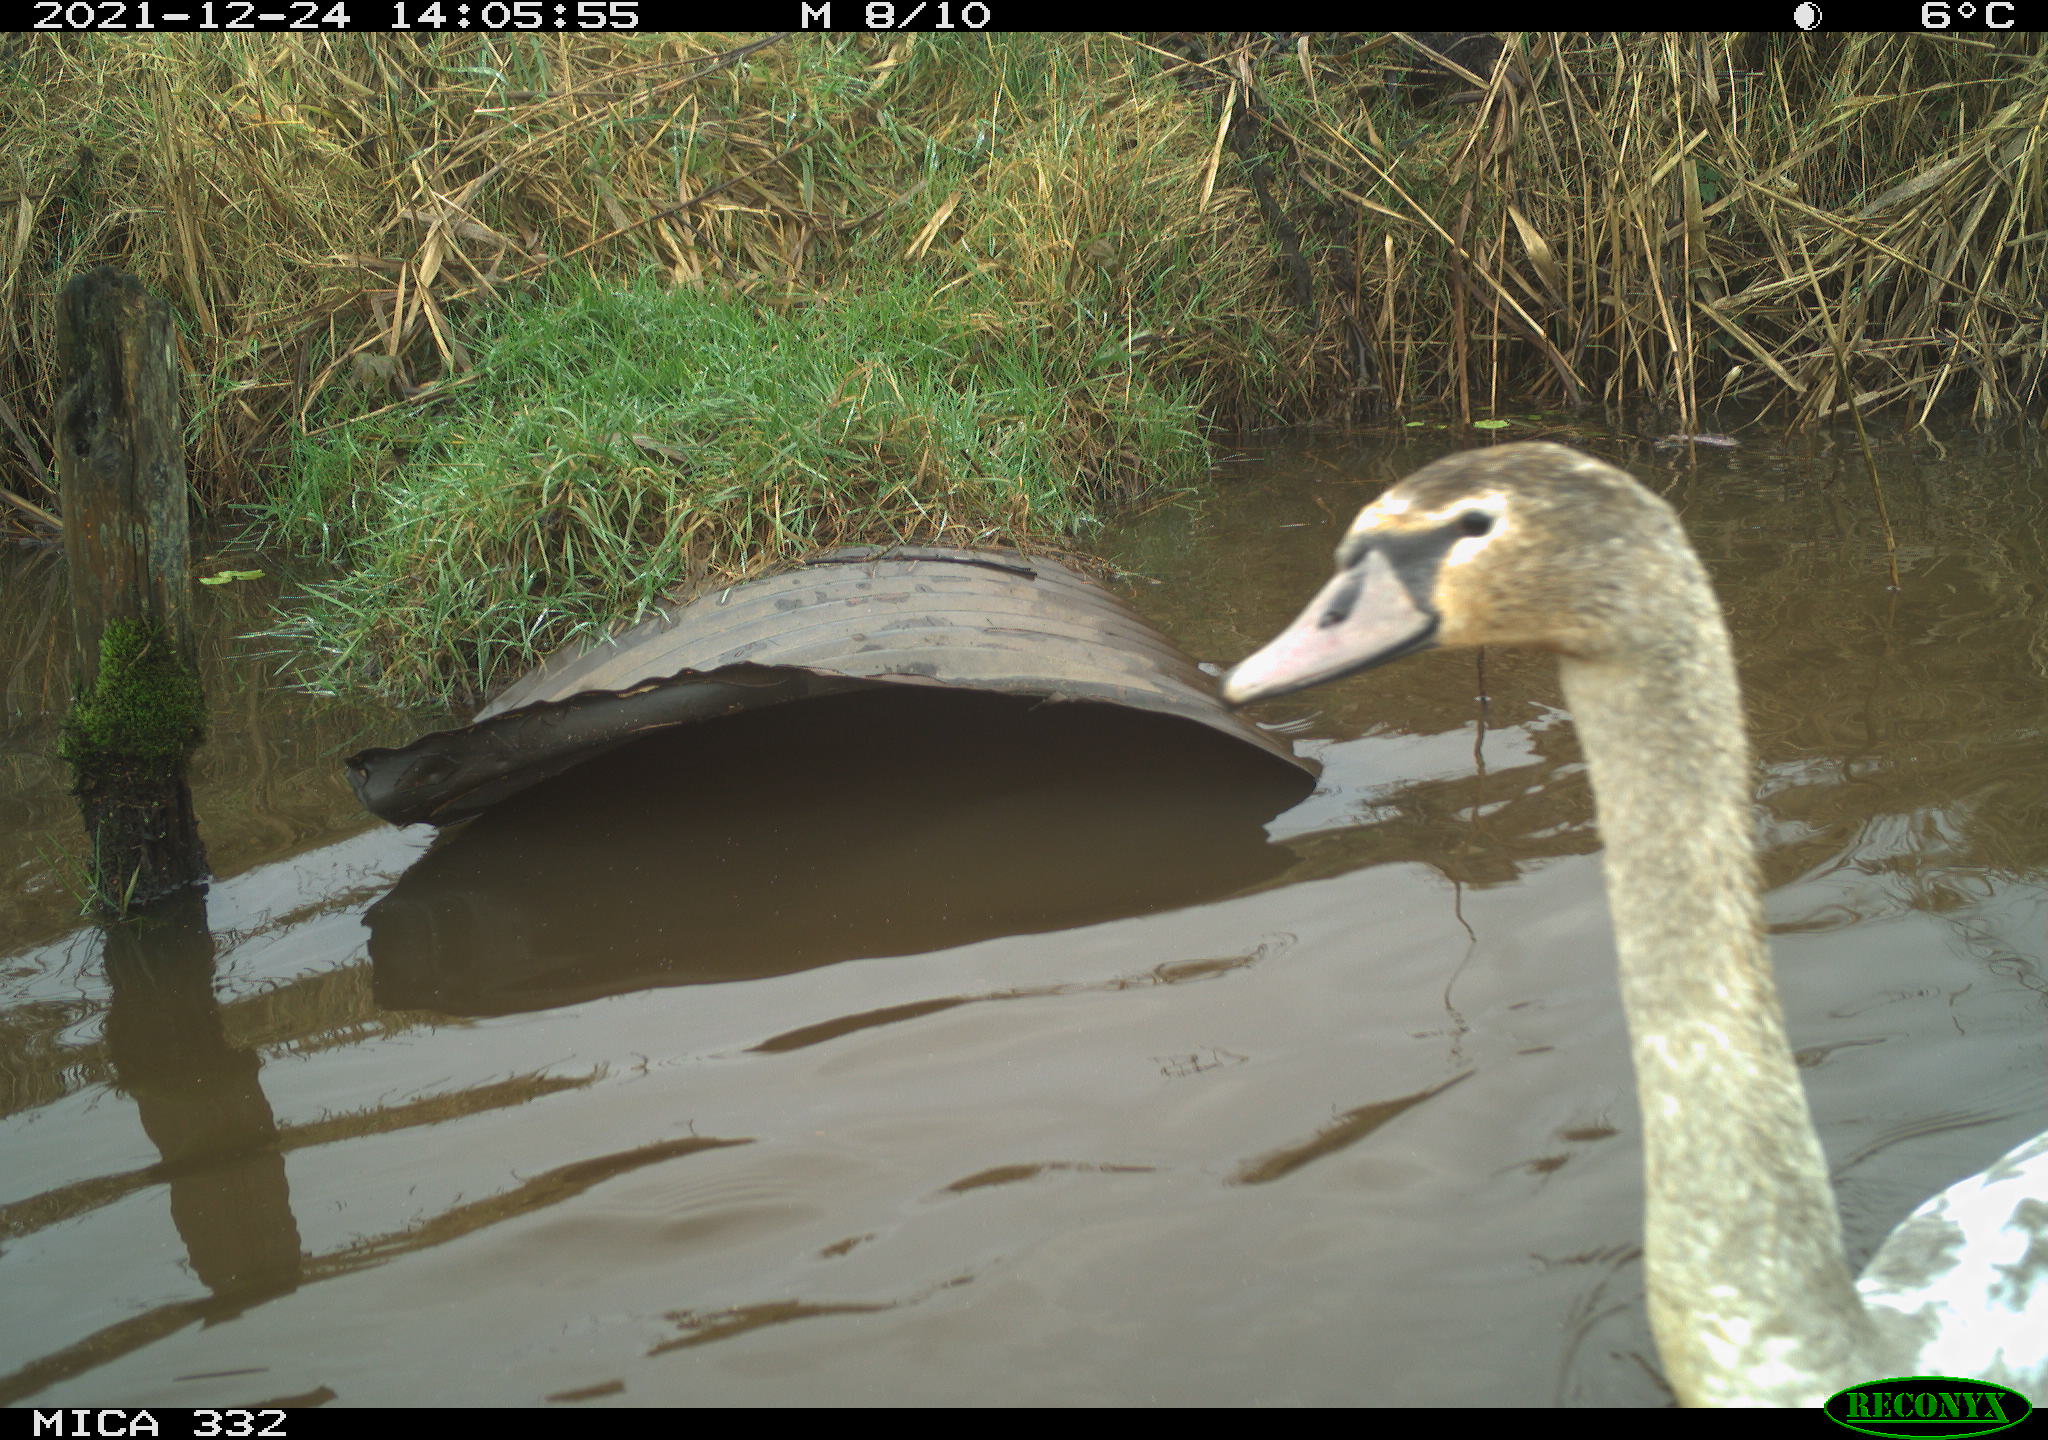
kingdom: Animalia
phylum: Chordata
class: Aves
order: Anseriformes
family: Anatidae
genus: Cygnus
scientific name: Cygnus olor
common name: Mute swan
